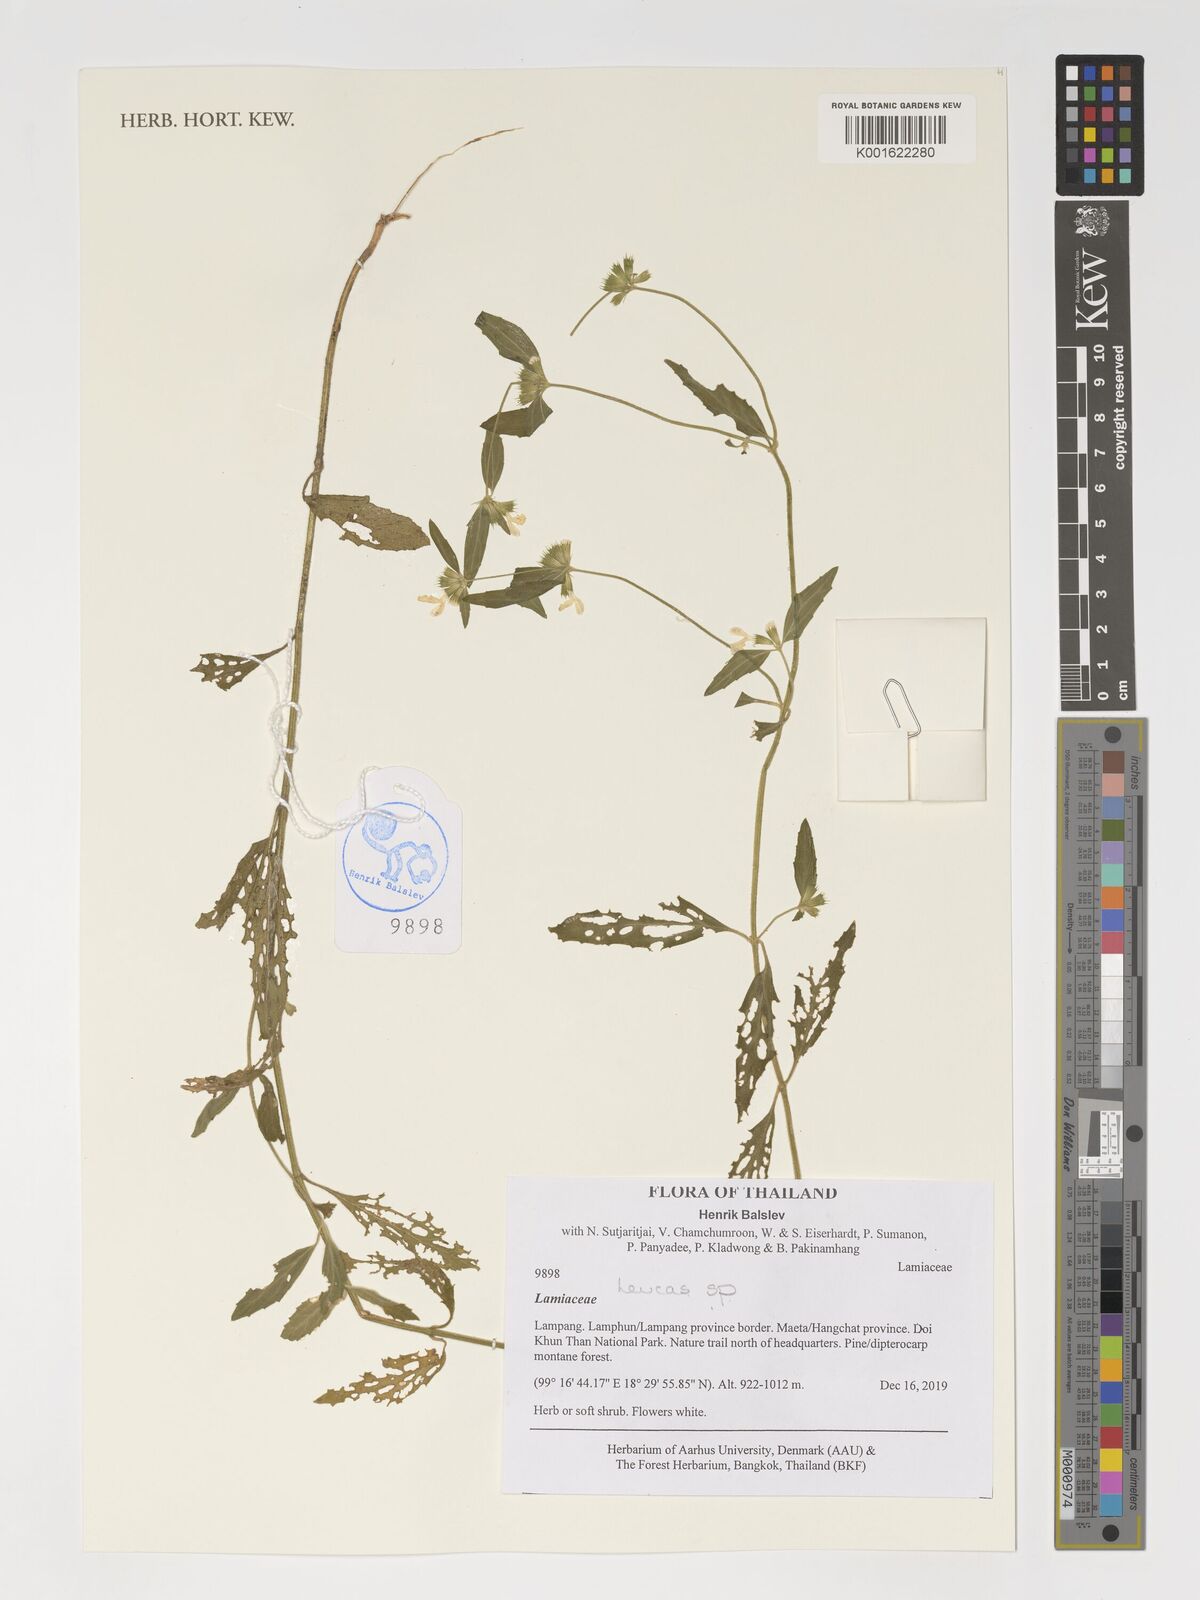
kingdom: Plantae
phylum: Tracheophyta
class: Magnoliopsida
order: Lamiales
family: Lamiaceae
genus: Leucas
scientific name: Leucas
